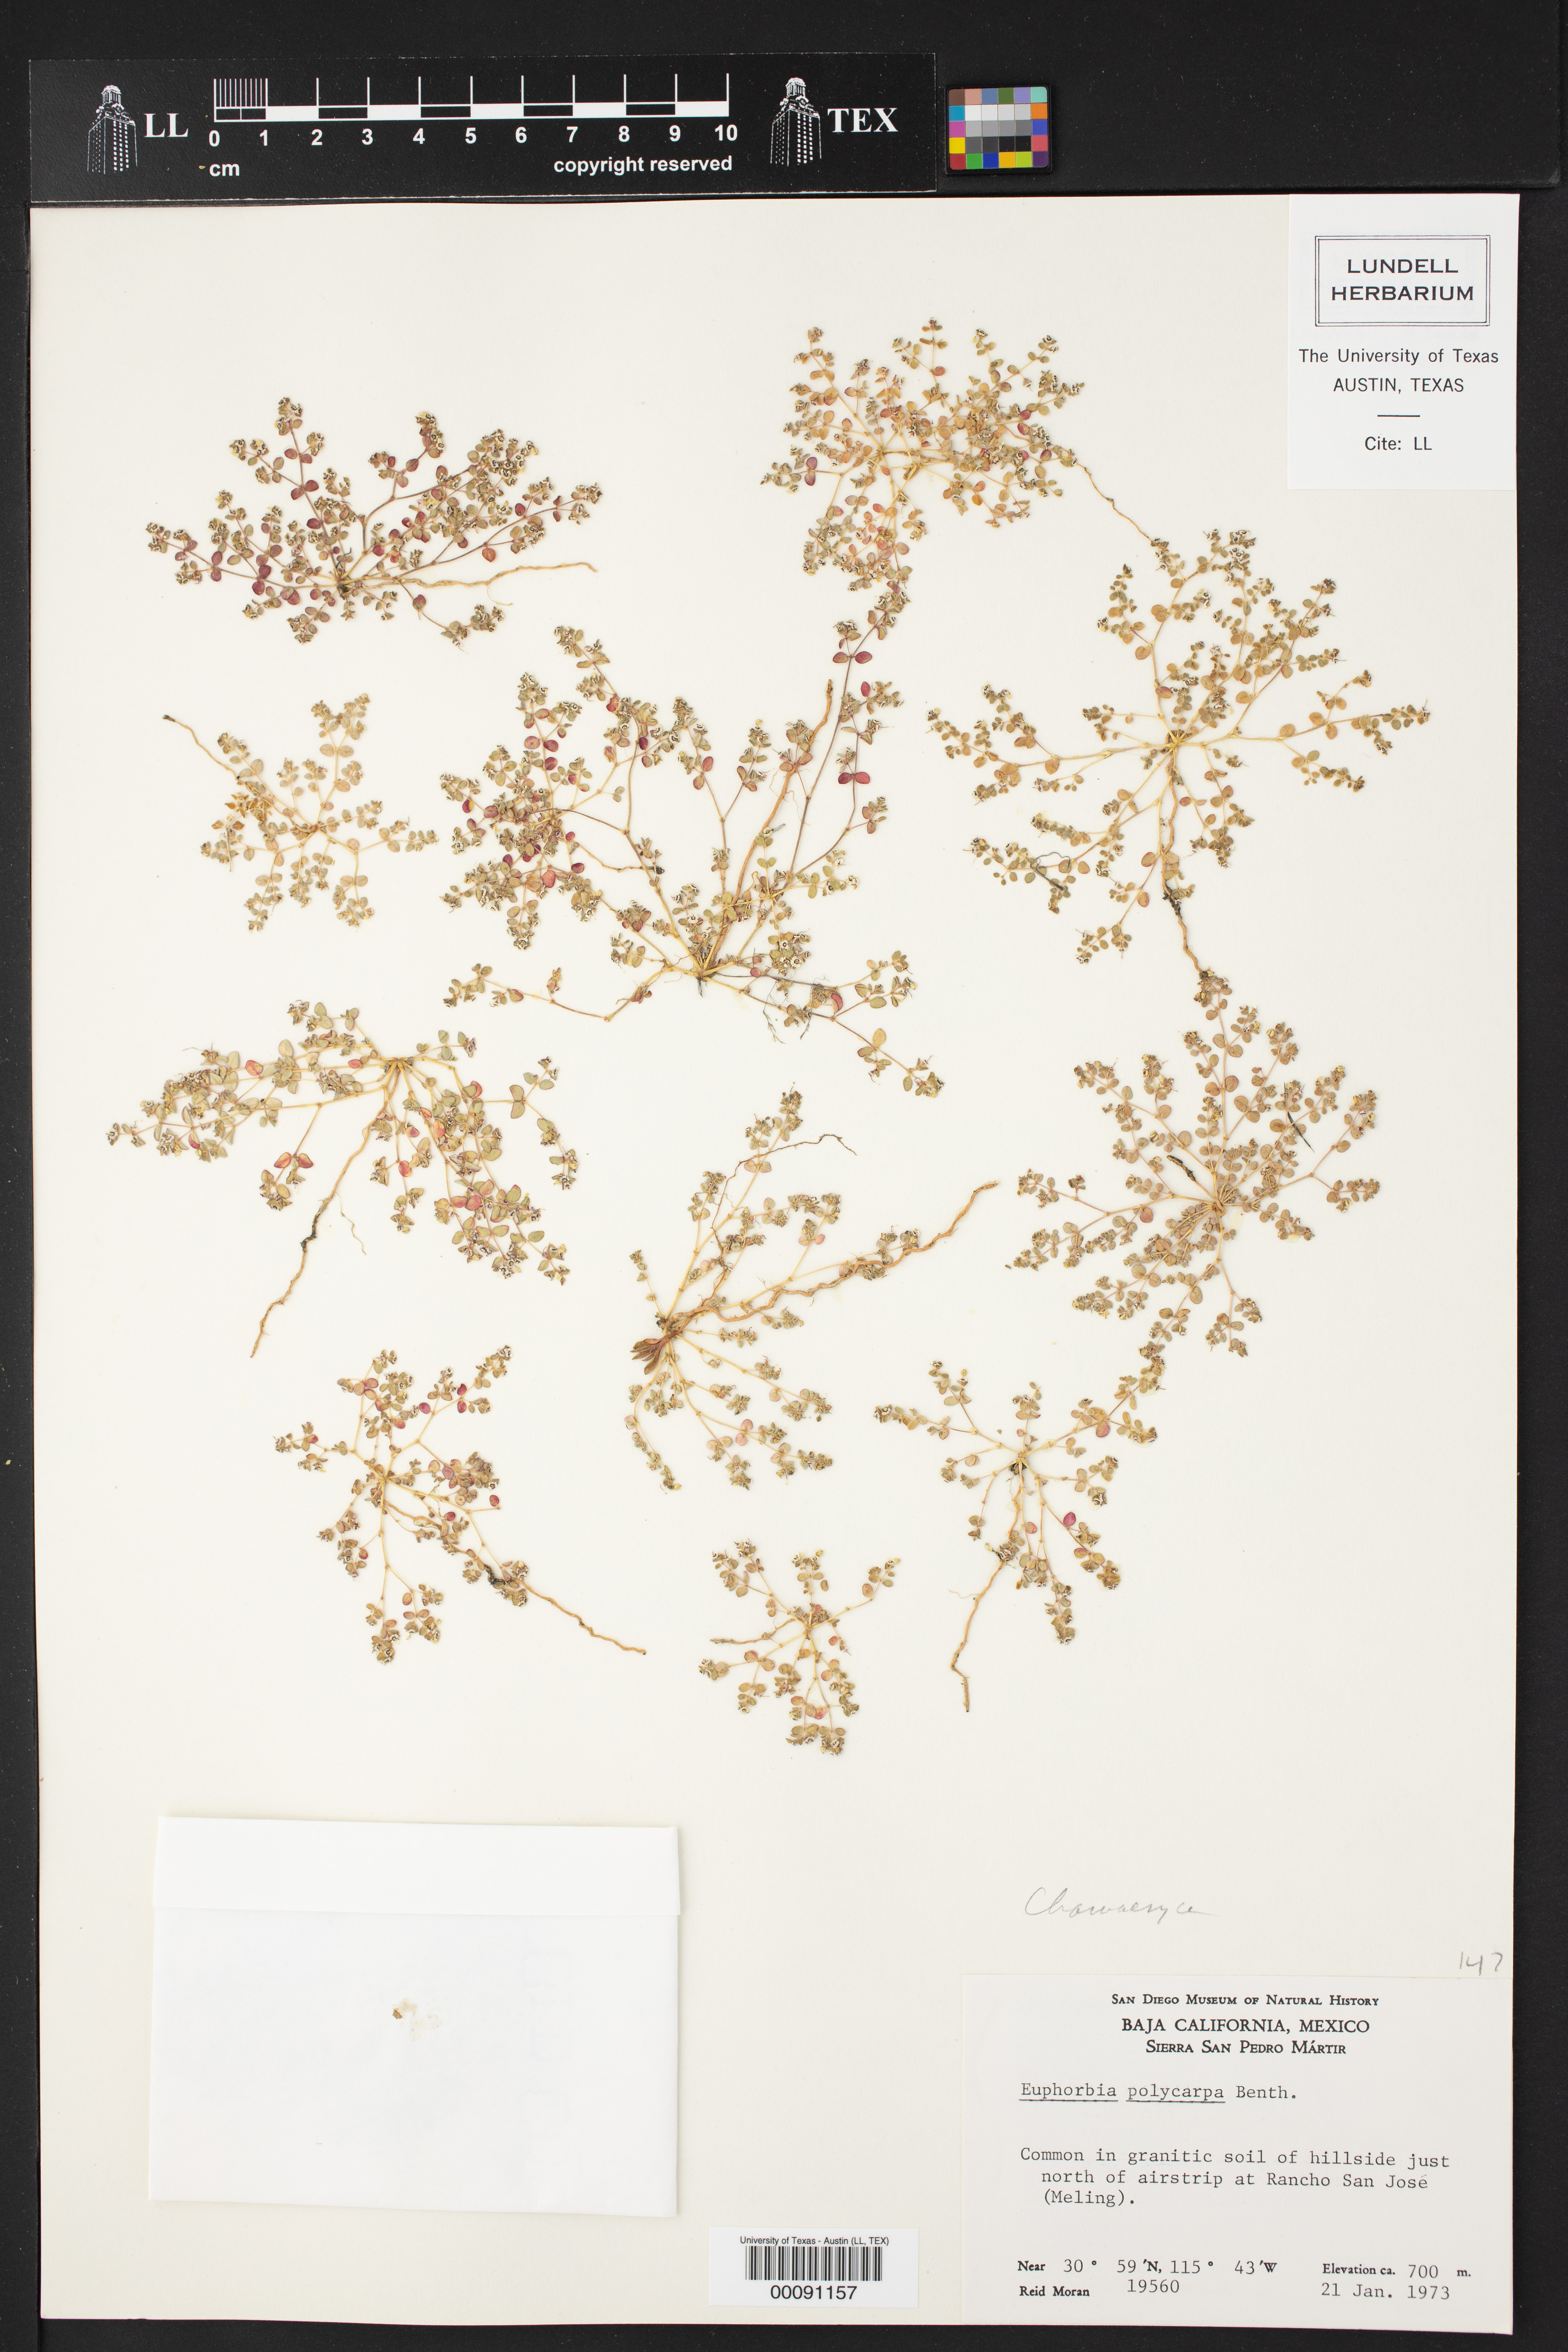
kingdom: Plantae
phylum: Tracheophyta
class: Magnoliopsida
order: Malpighiales
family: Euphorbiaceae
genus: Euphorbia
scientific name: Euphorbia polycarpa
